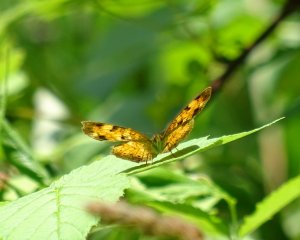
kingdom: Animalia
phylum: Arthropoda
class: Insecta
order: Lepidoptera
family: Nymphalidae
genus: Phyciodes
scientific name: Phyciodes tharos
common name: Northern Crescent
